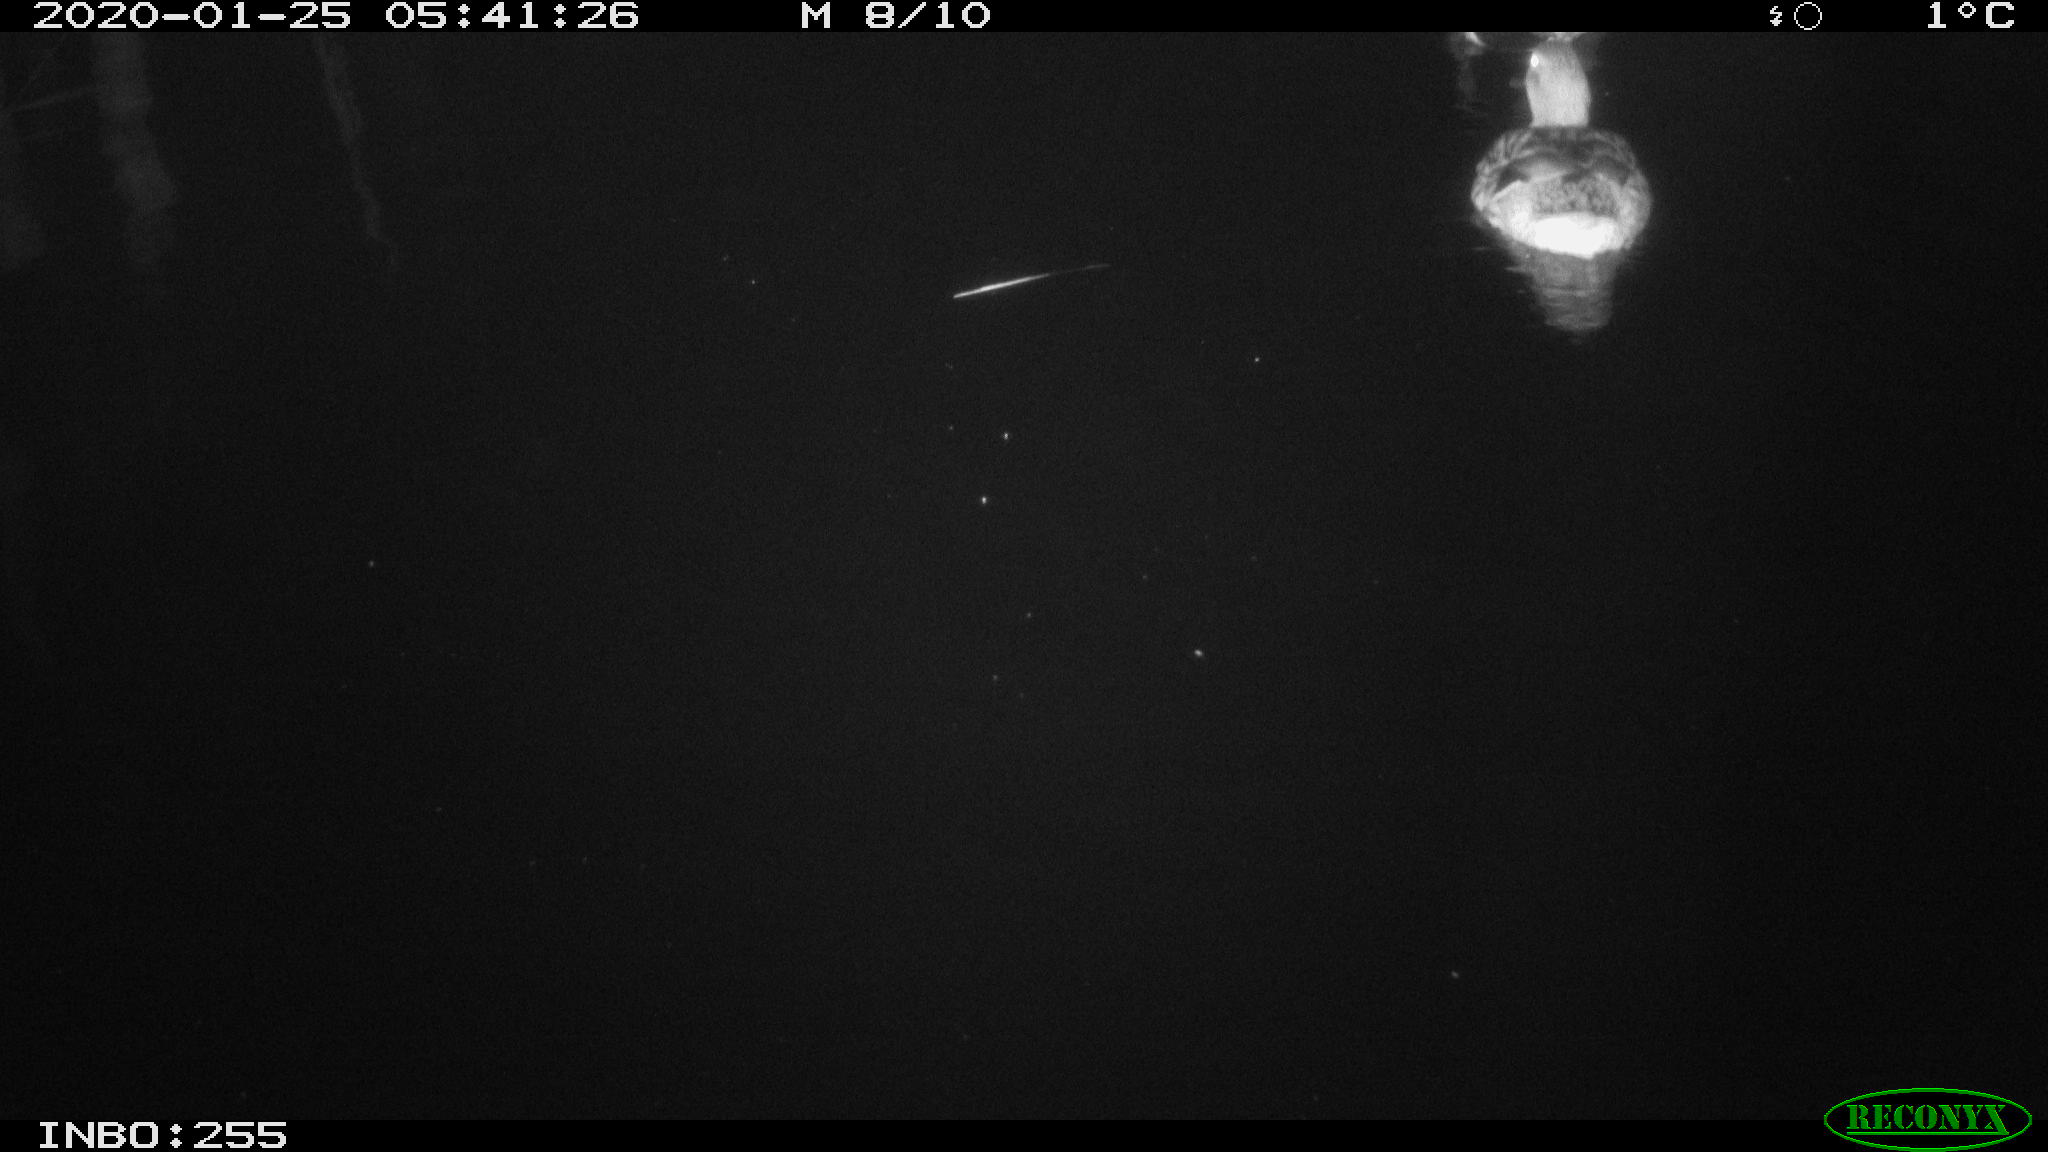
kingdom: Animalia
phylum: Chordata
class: Aves
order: Anseriformes
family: Anatidae
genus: Anas
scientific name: Anas platyrhynchos
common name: Mallard
